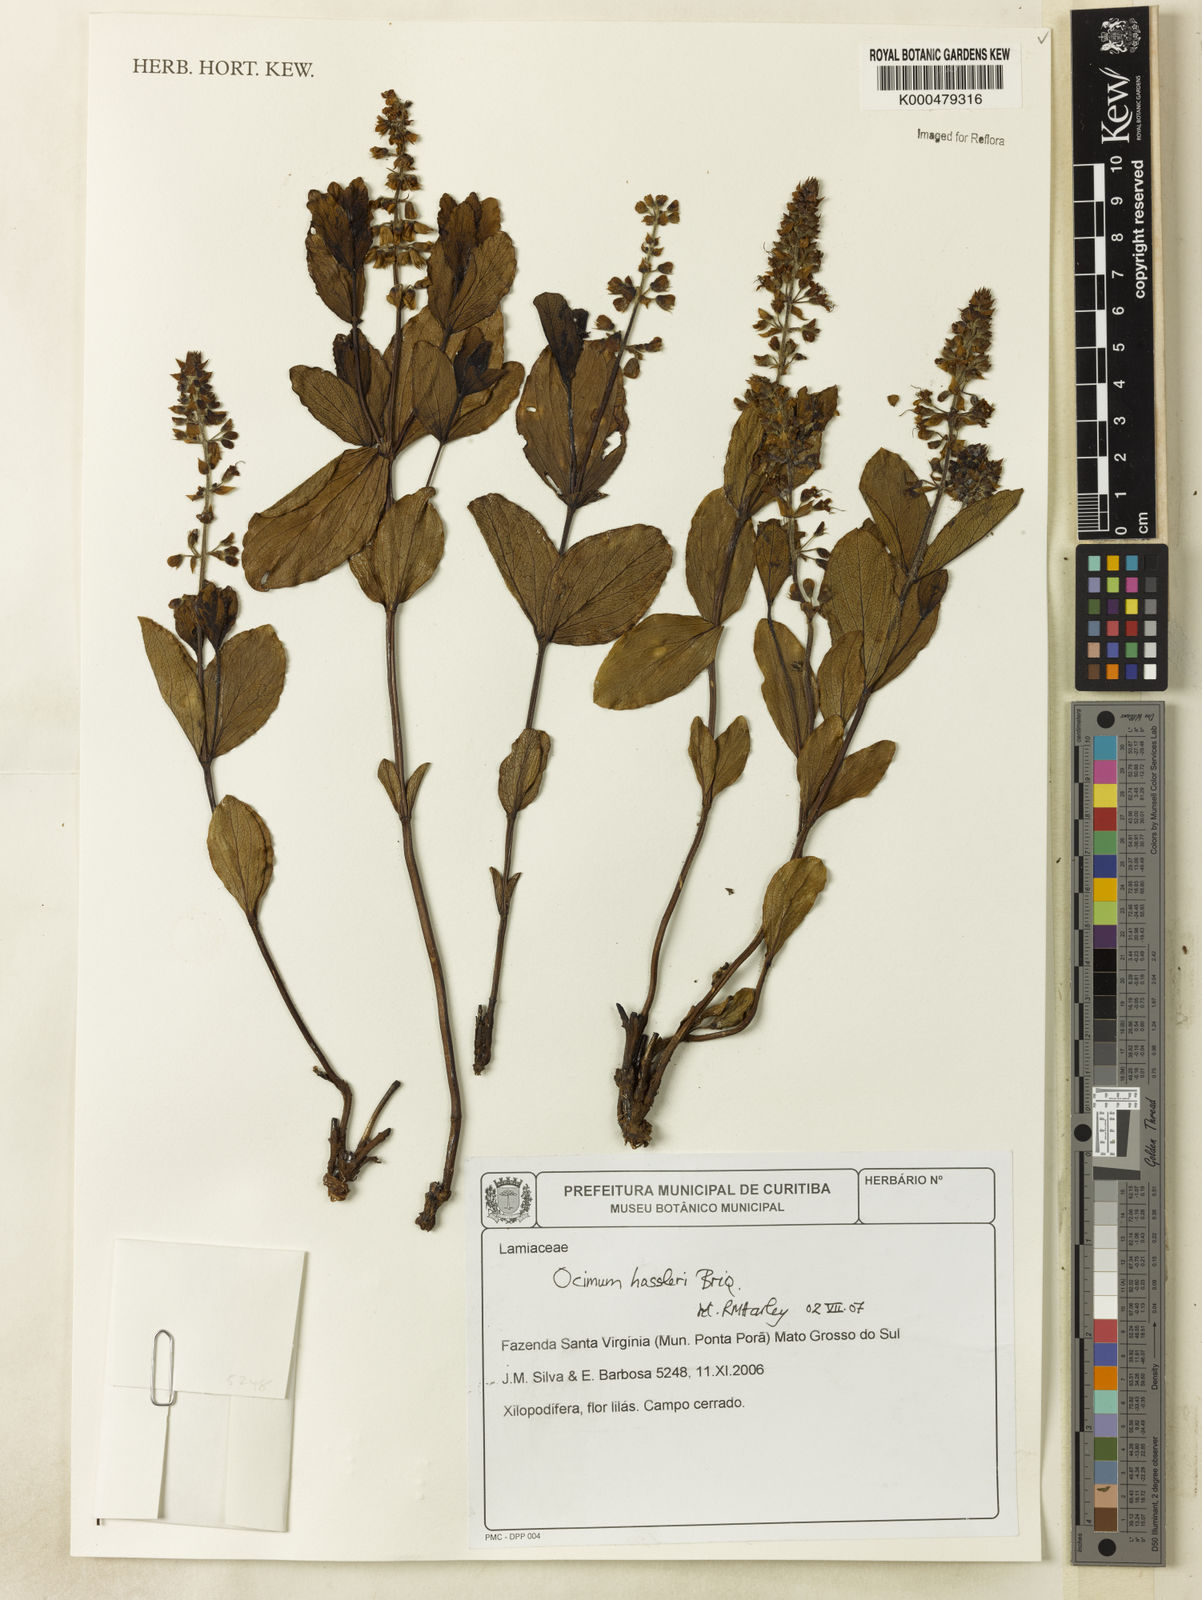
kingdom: Plantae
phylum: Tracheophyta
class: Magnoliopsida
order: Lamiales
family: Lamiaceae
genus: Ocimum
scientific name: Ocimum ovatum
